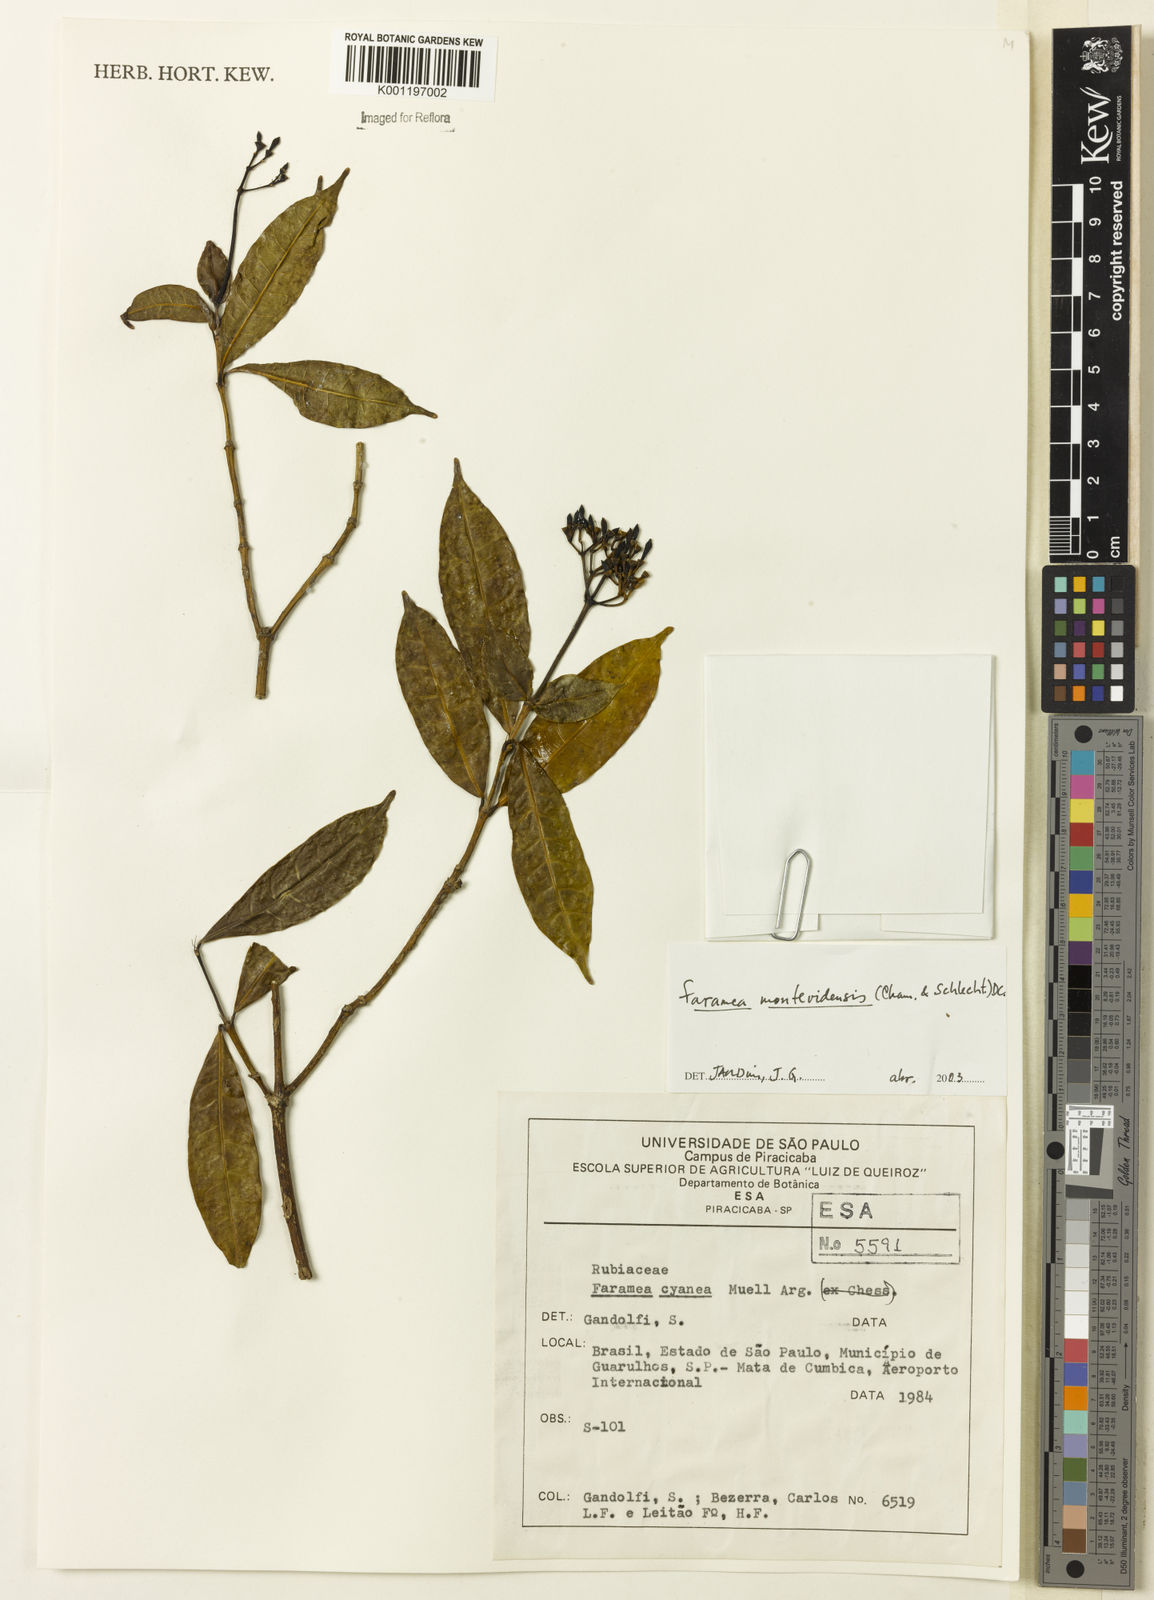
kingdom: Plantae
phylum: Tracheophyta
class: Magnoliopsida
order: Gentianales
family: Rubiaceae
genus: Faramea
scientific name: Faramea montevidensis
